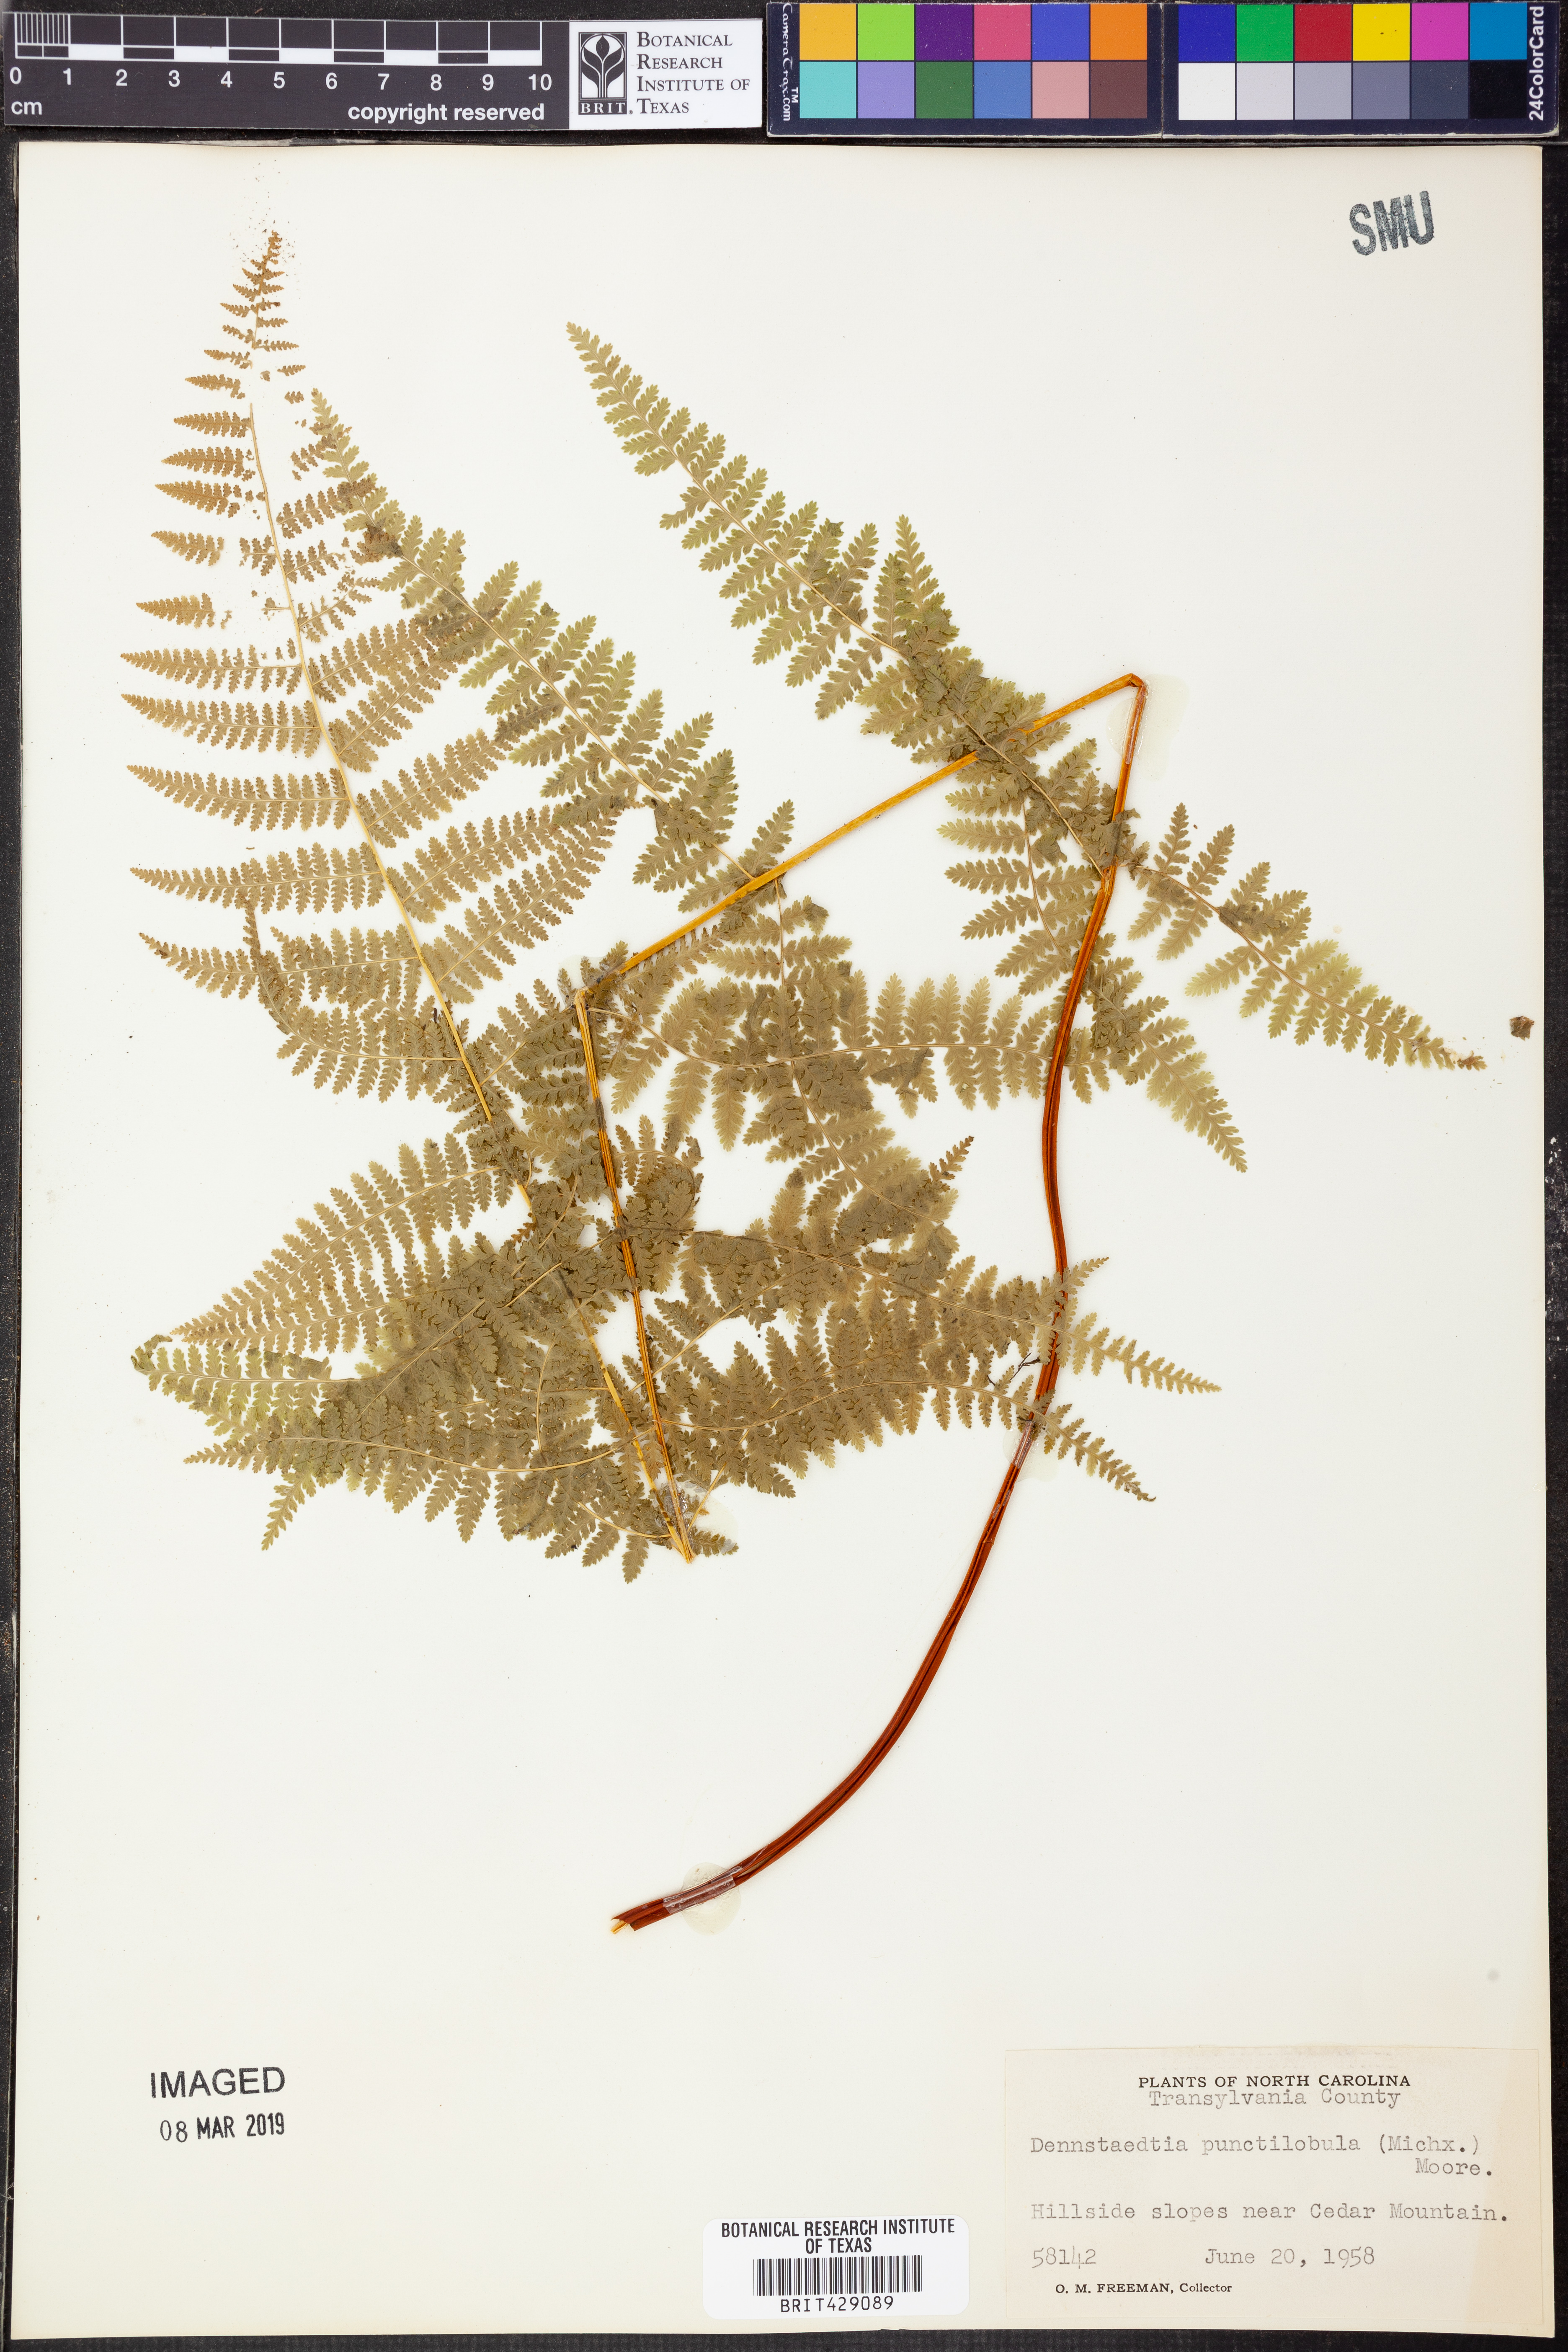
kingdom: Plantae
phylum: Tracheophyta
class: Polypodiopsida
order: Polypodiales
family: Dennstaedtiaceae
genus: Sitobolium
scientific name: Sitobolium punctilobum
